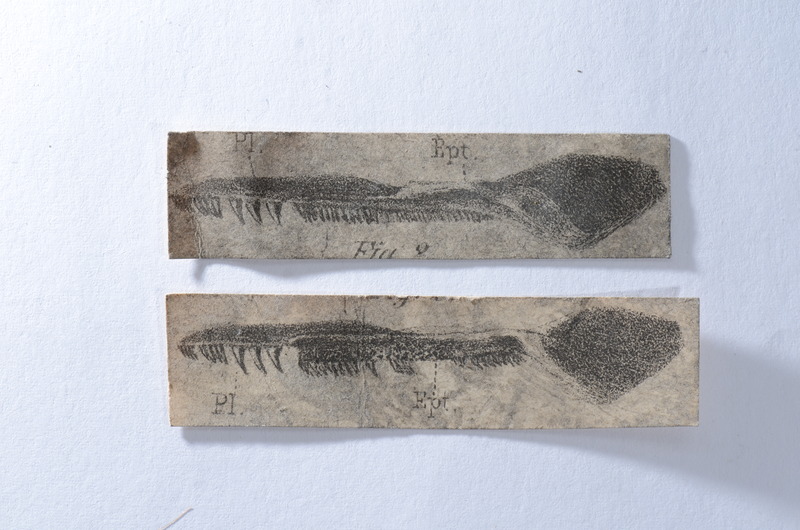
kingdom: Animalia
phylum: Chordata
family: Aspidorhynchidae
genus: Aspidorhynchus
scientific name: Aspidorhynchus
